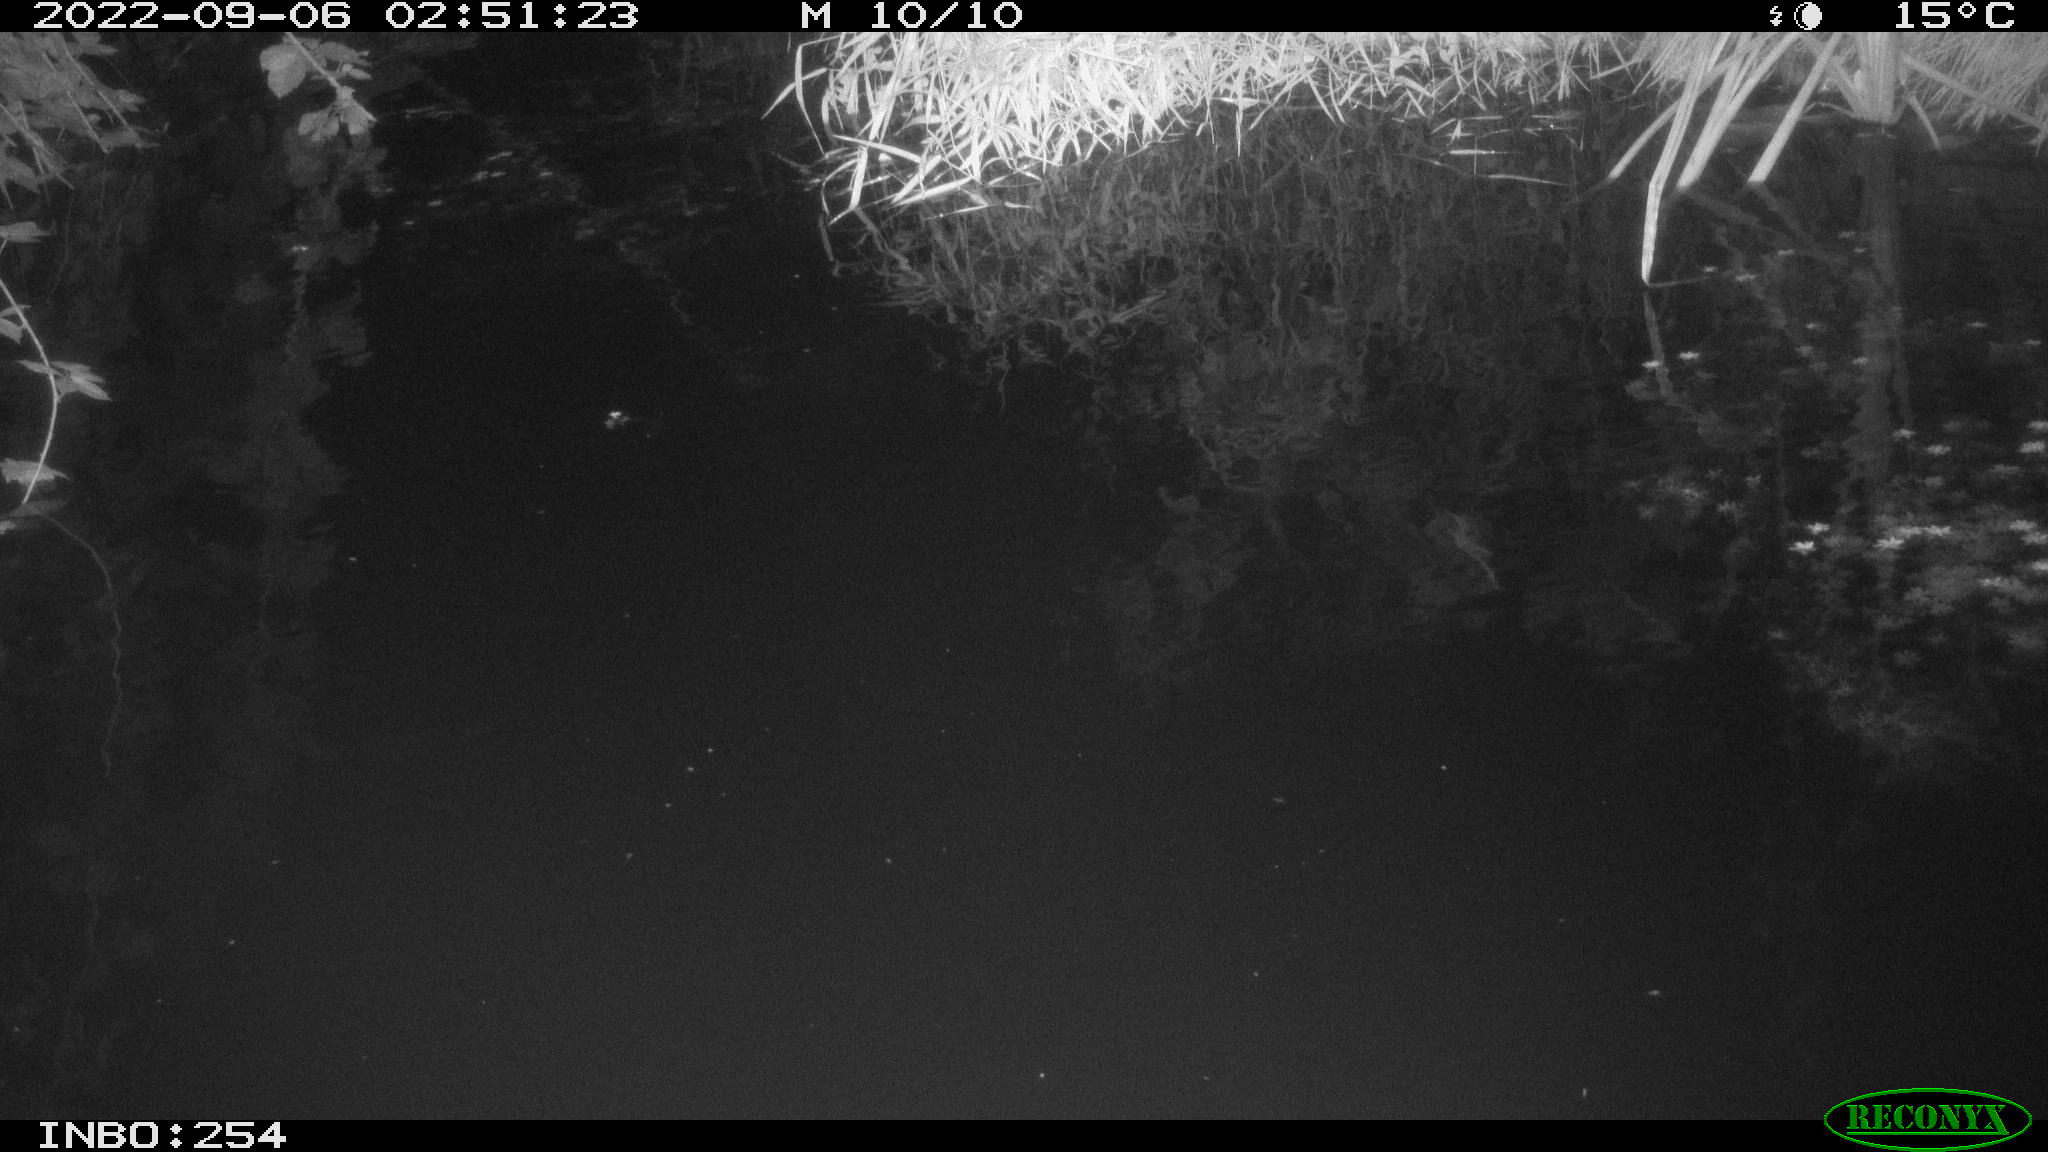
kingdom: Animalia
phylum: Chordata
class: Aves
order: Anseriformes
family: Anatidae
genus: Anas
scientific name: Anas platyrhynchos
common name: Mallard
